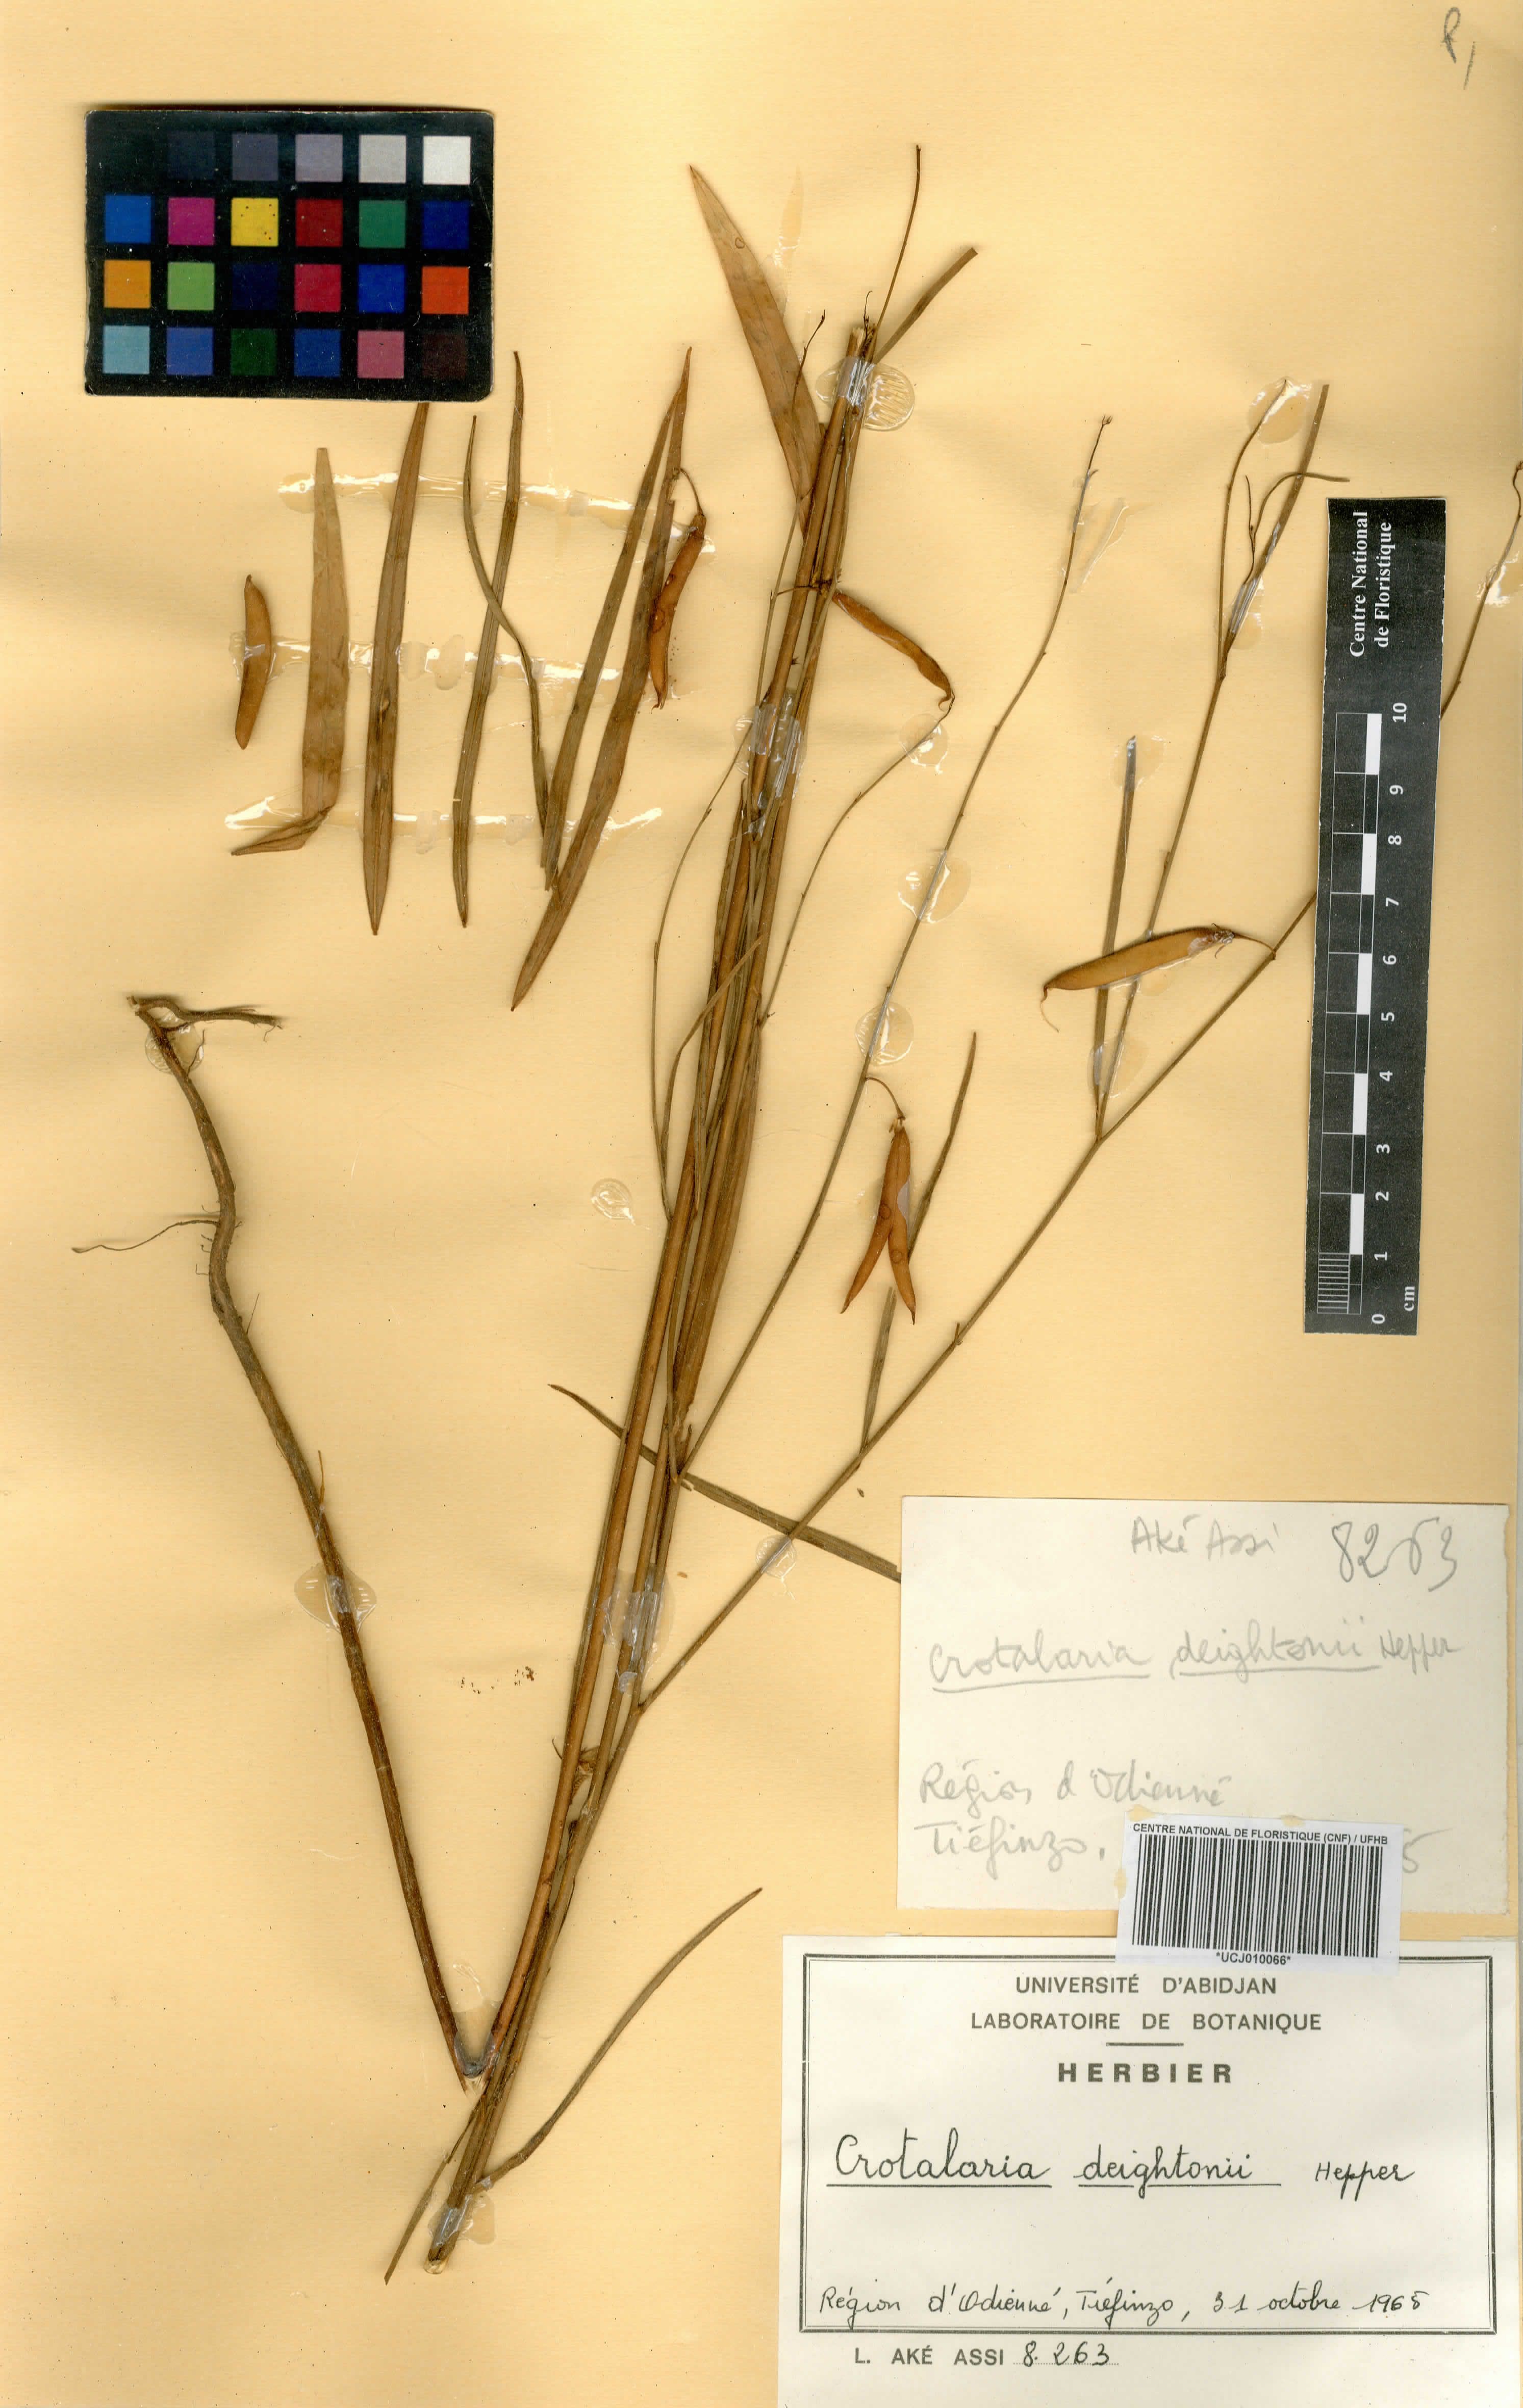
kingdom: Plantae
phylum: Tracheophyta
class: Magnoliopsida
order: Fabales
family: Fabaceae
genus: Crotalaria
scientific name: Crotalaria deightonii
